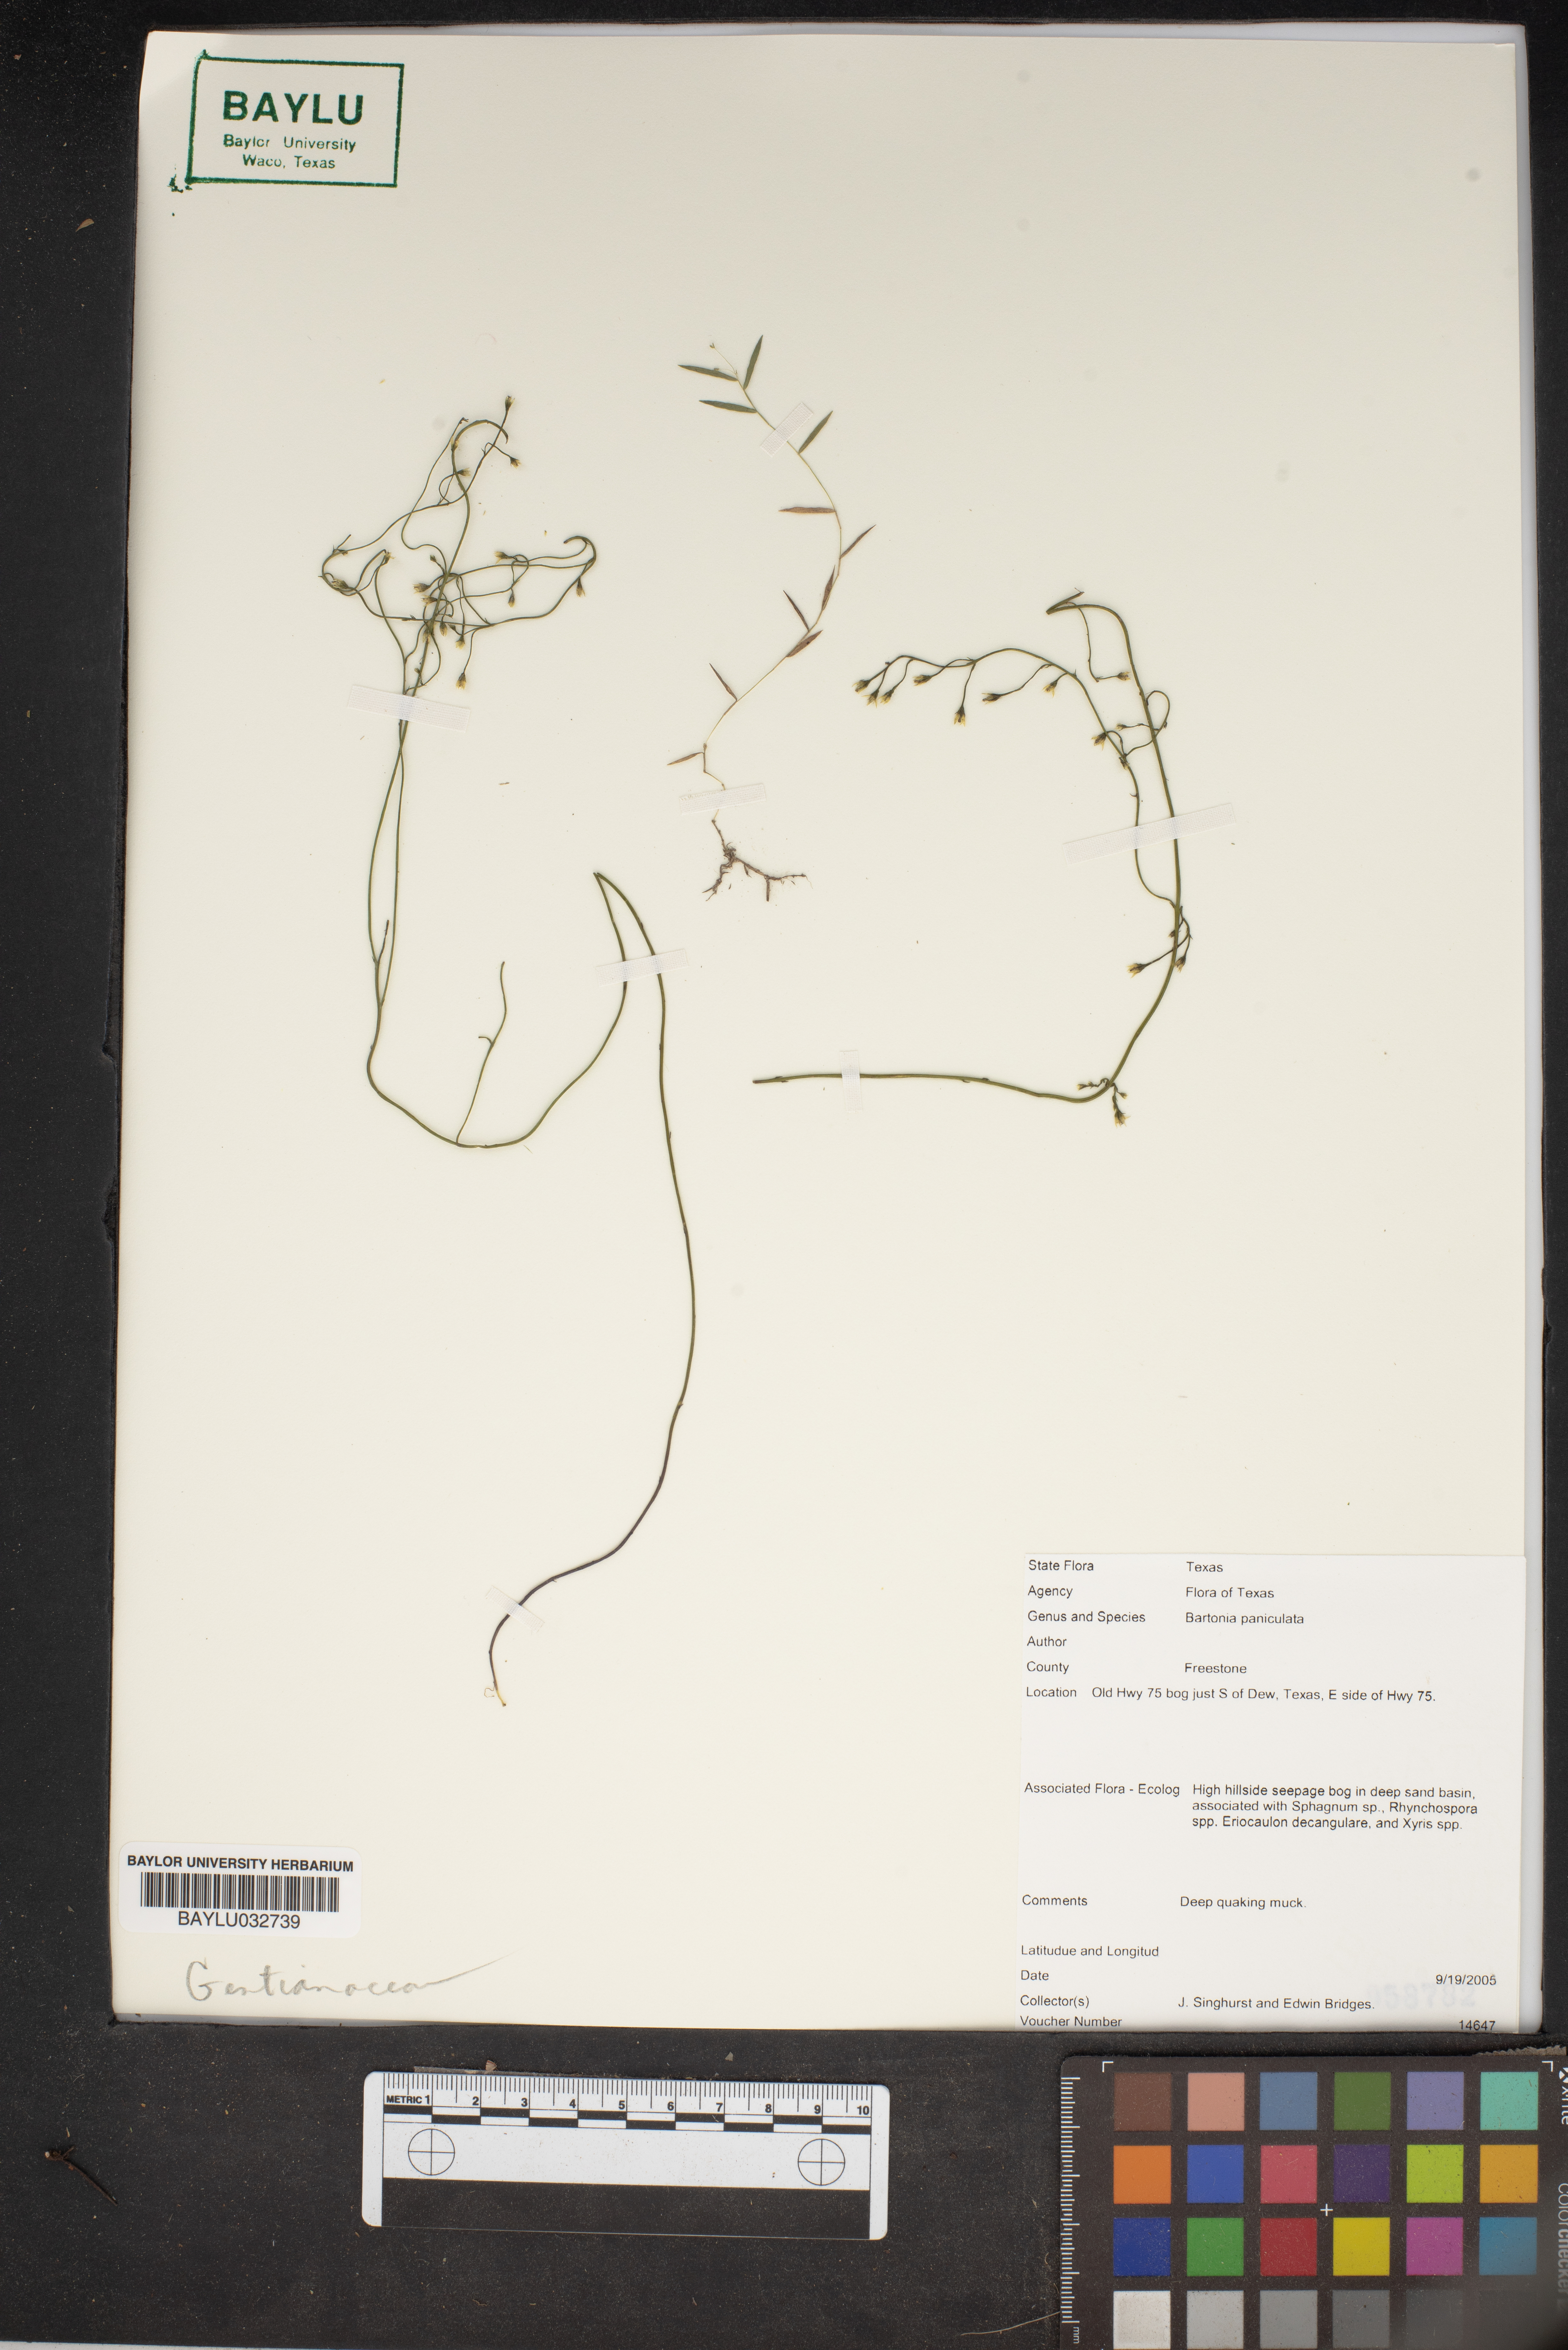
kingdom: Plantae
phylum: Tracheophyta
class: Magnoliopsida
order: Gentianales
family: Gentianaceae
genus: Bartonia
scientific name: Bartonia paniculata
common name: Branched bartonia
